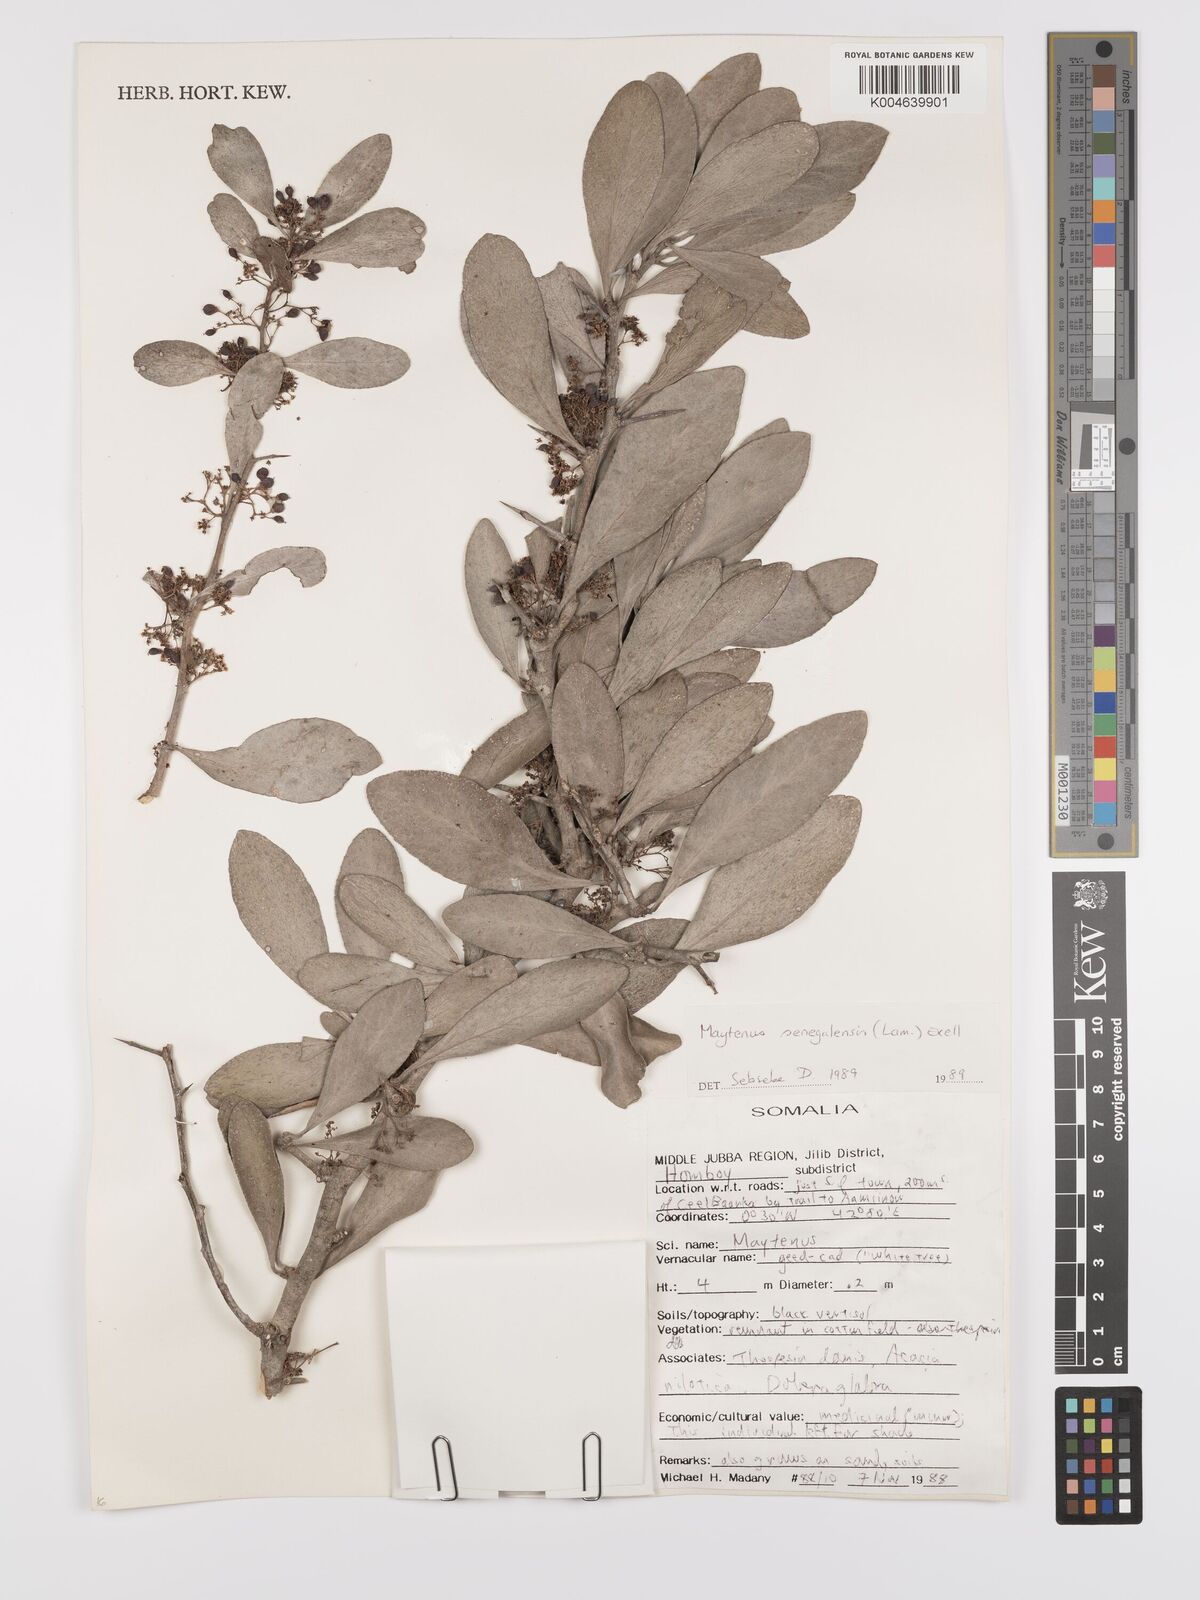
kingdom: Plantae
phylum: Tracheophyta
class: Magnoliopsida
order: Celastrales
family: Celastraceae
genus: Gymnosporia
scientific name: Gymnosporia senegalensis
